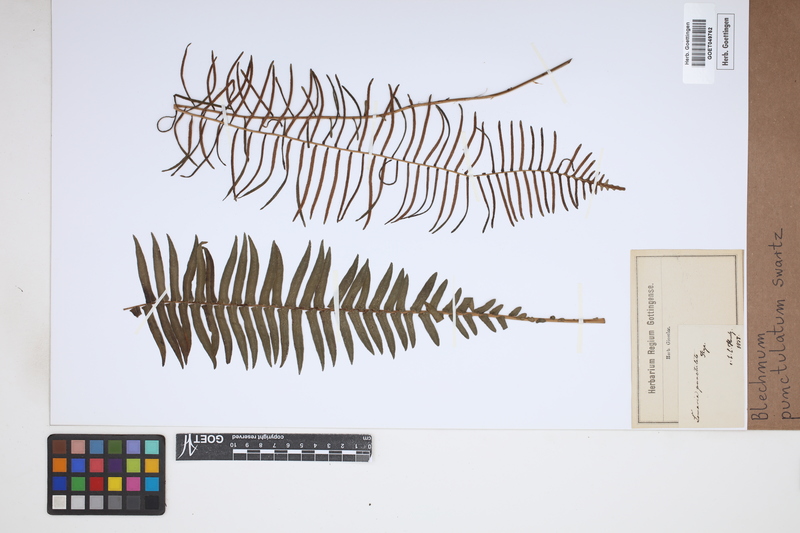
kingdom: Plantae
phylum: Tracheophyta
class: Polypodiopsida
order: Polypodiales
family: Blechnaceae
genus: Blechnum
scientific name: Blechnum punctulatum
